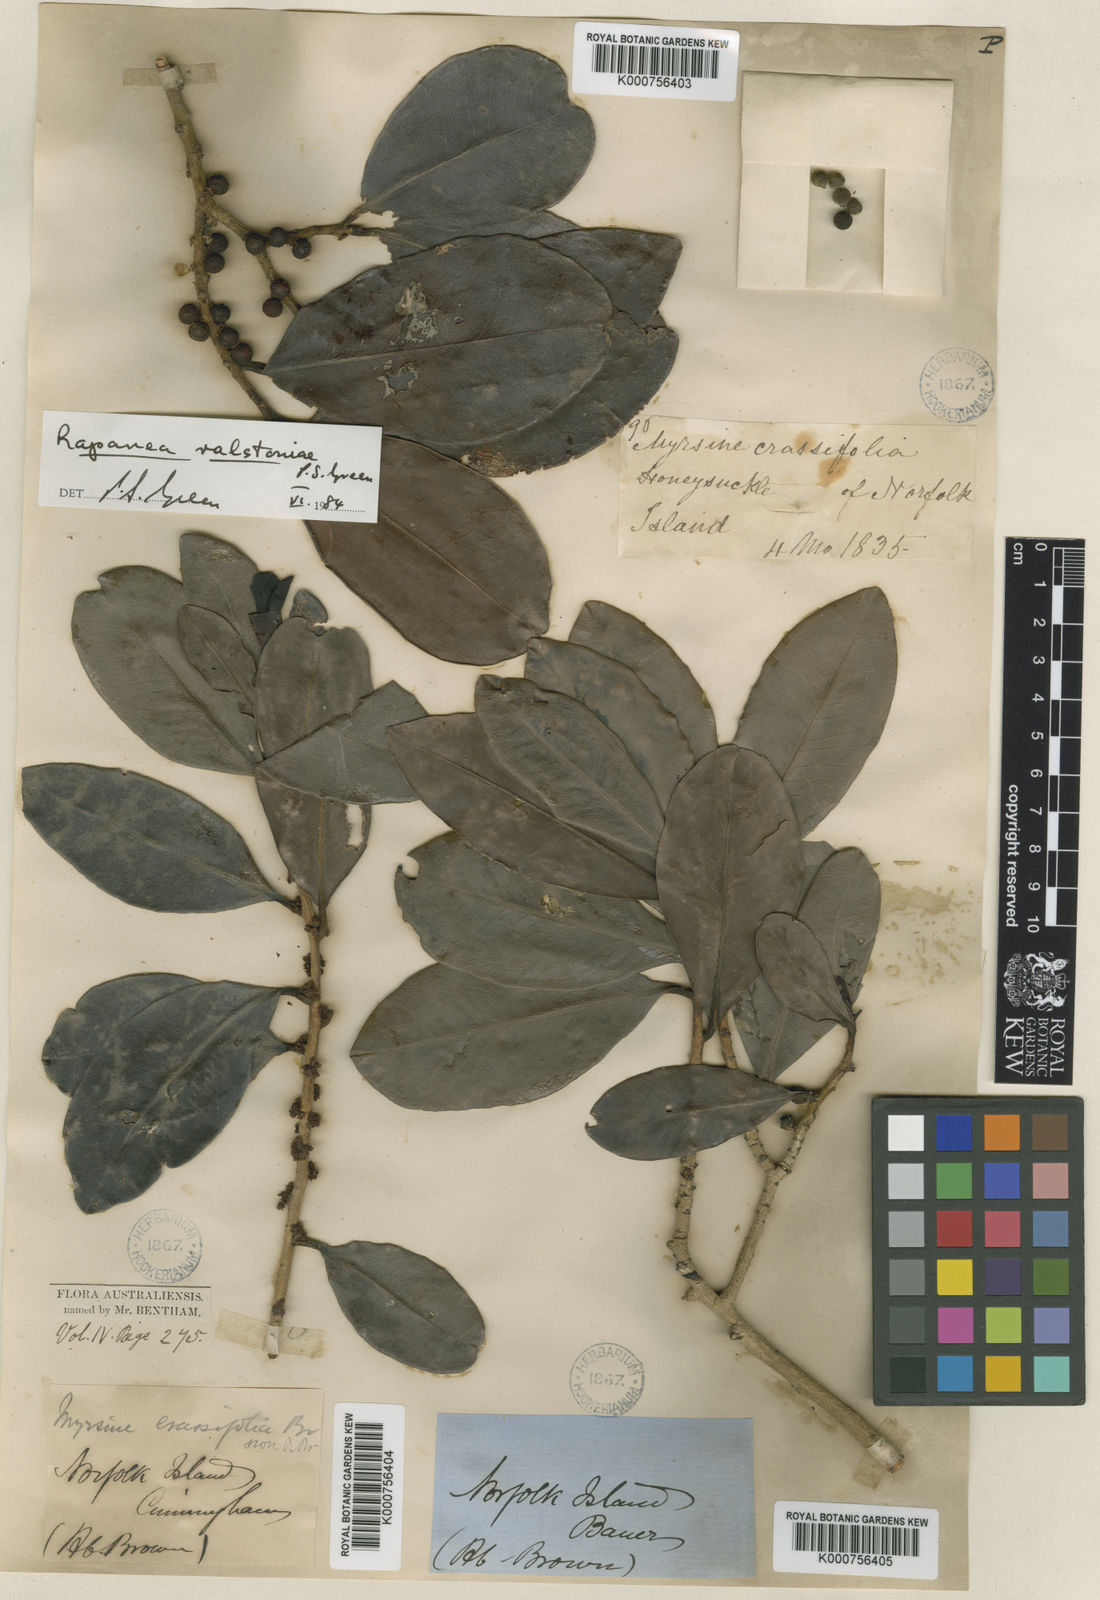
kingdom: Plantae
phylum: Tracheophyta
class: Magnoliopsida
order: Ericales
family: Primulaceae
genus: Myrsine
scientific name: Myrsine ralstoniae
